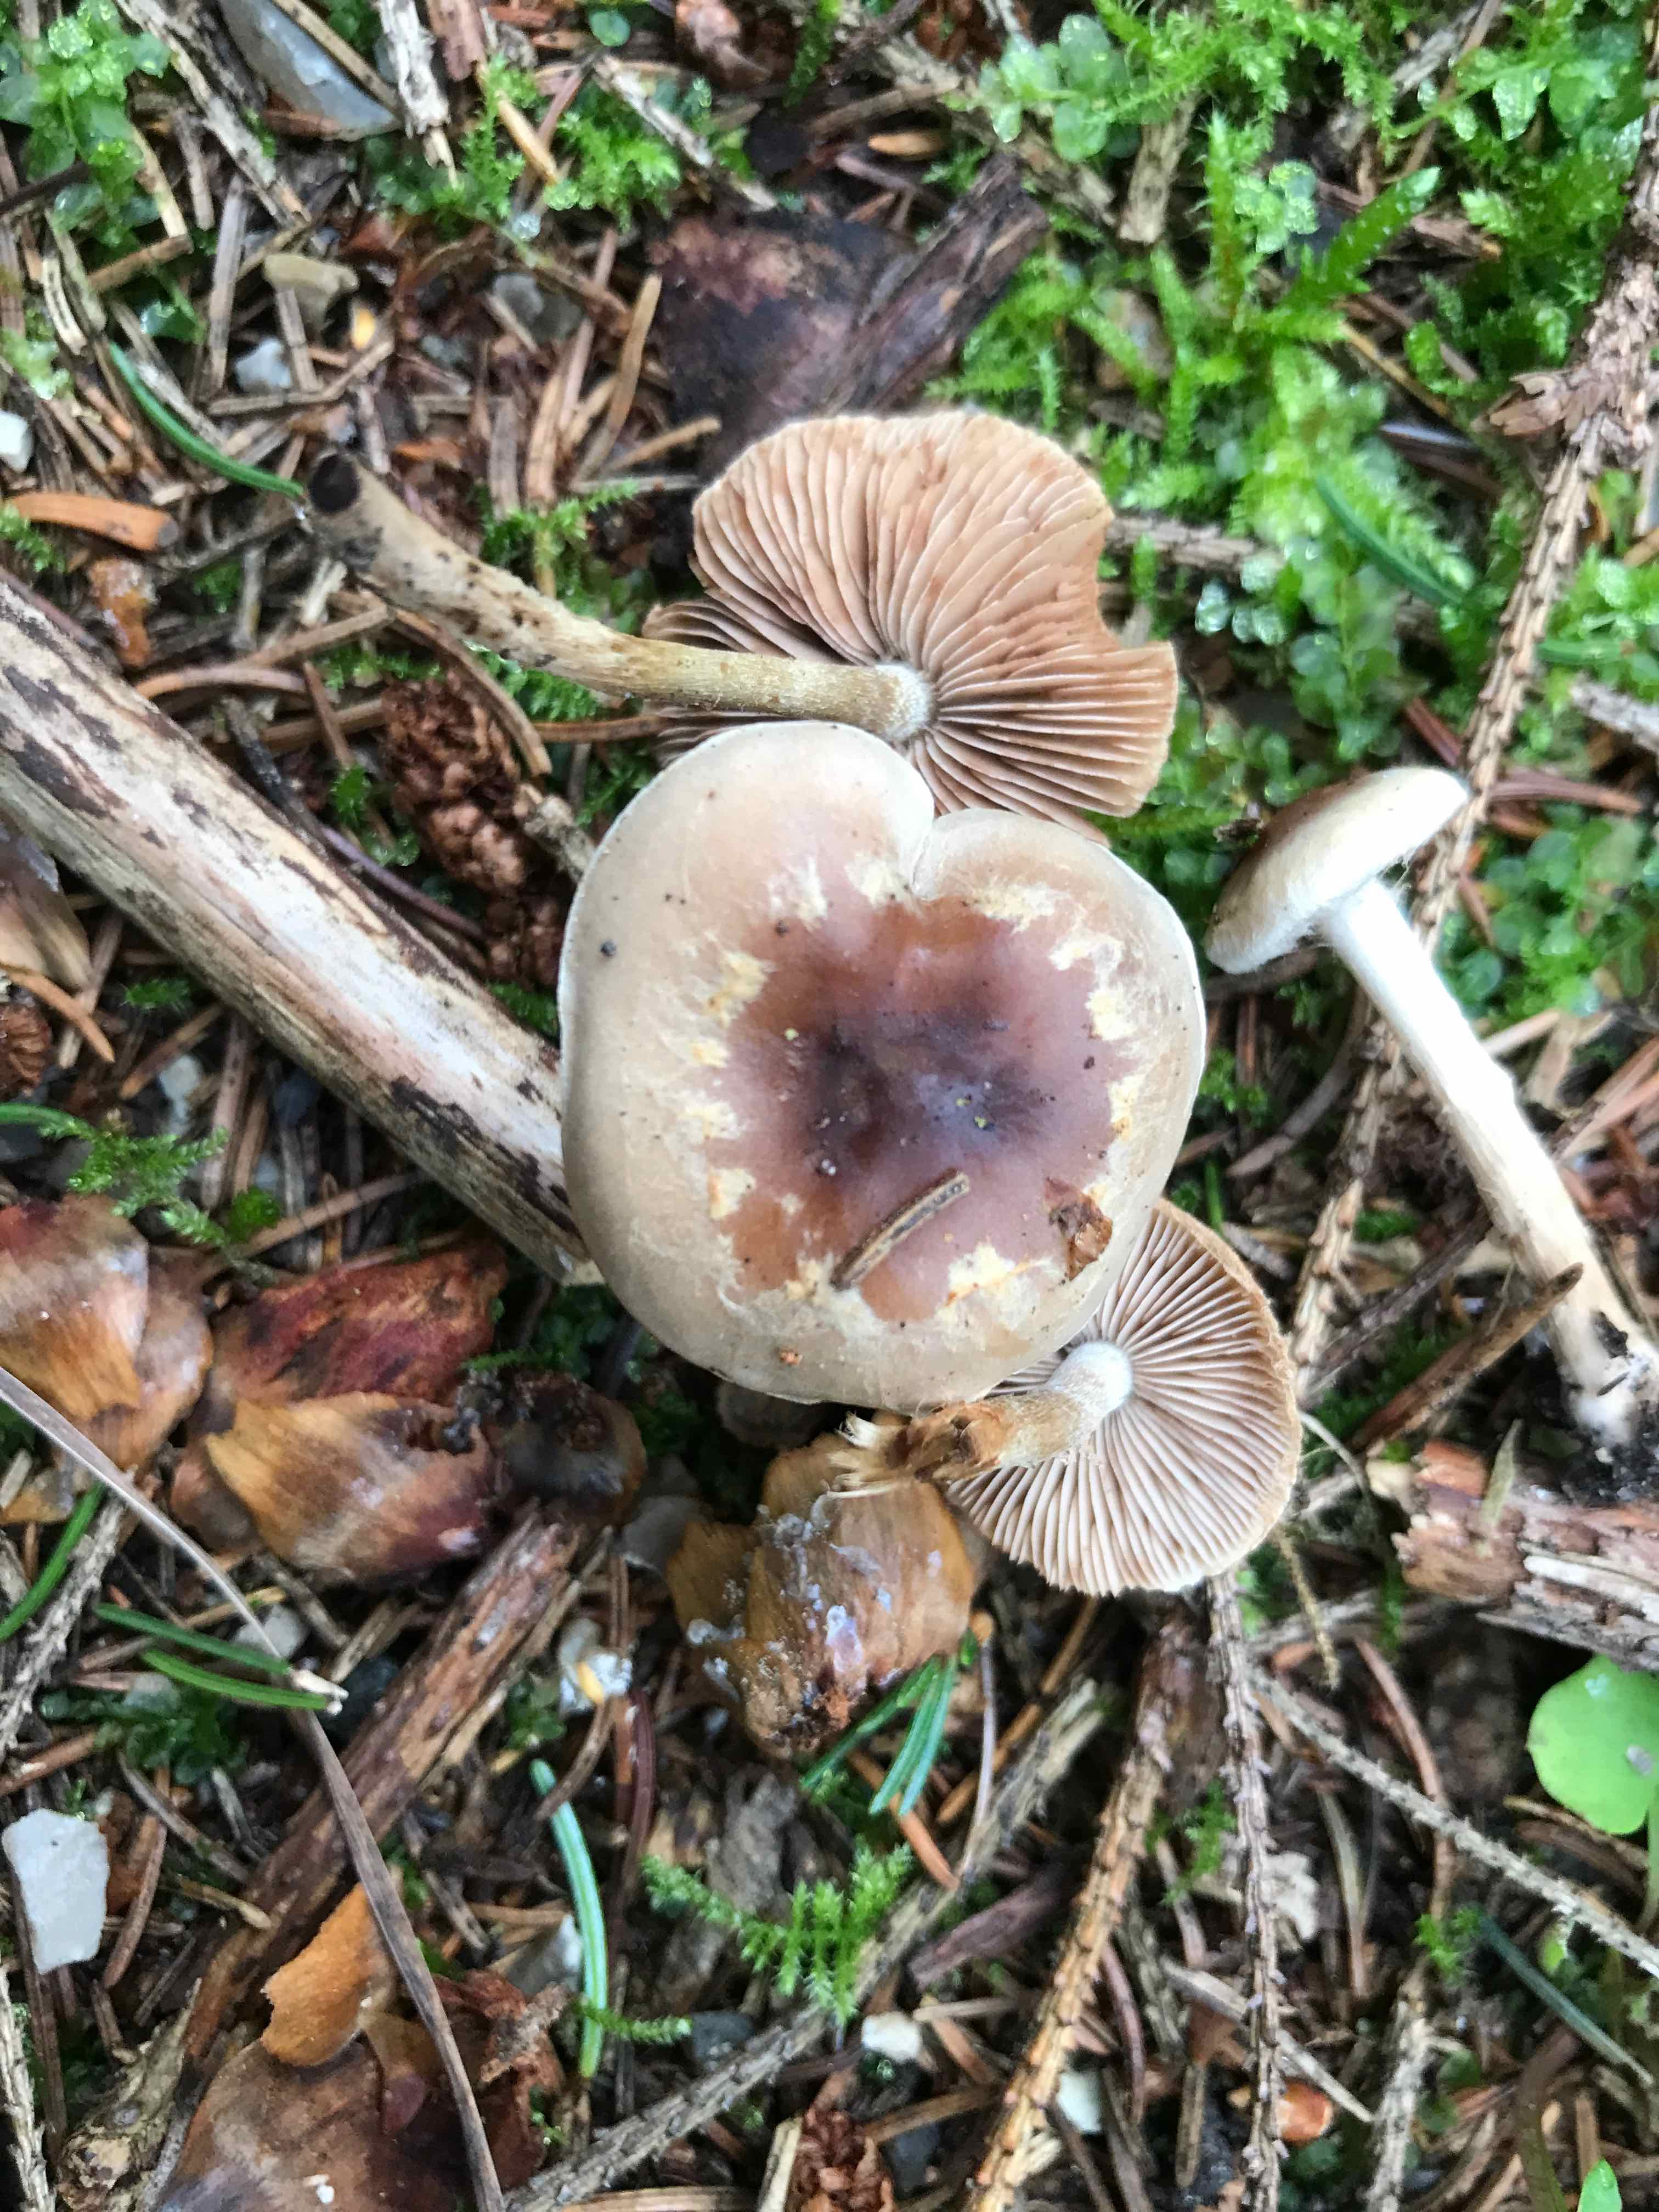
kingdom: Fungi
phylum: Basidiomycota
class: Agaricomycetes
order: Agaricales
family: Hymenogastraceae
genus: Hebeloma
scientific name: Hebeloma mesophaeum
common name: lerbrun tåreblad
